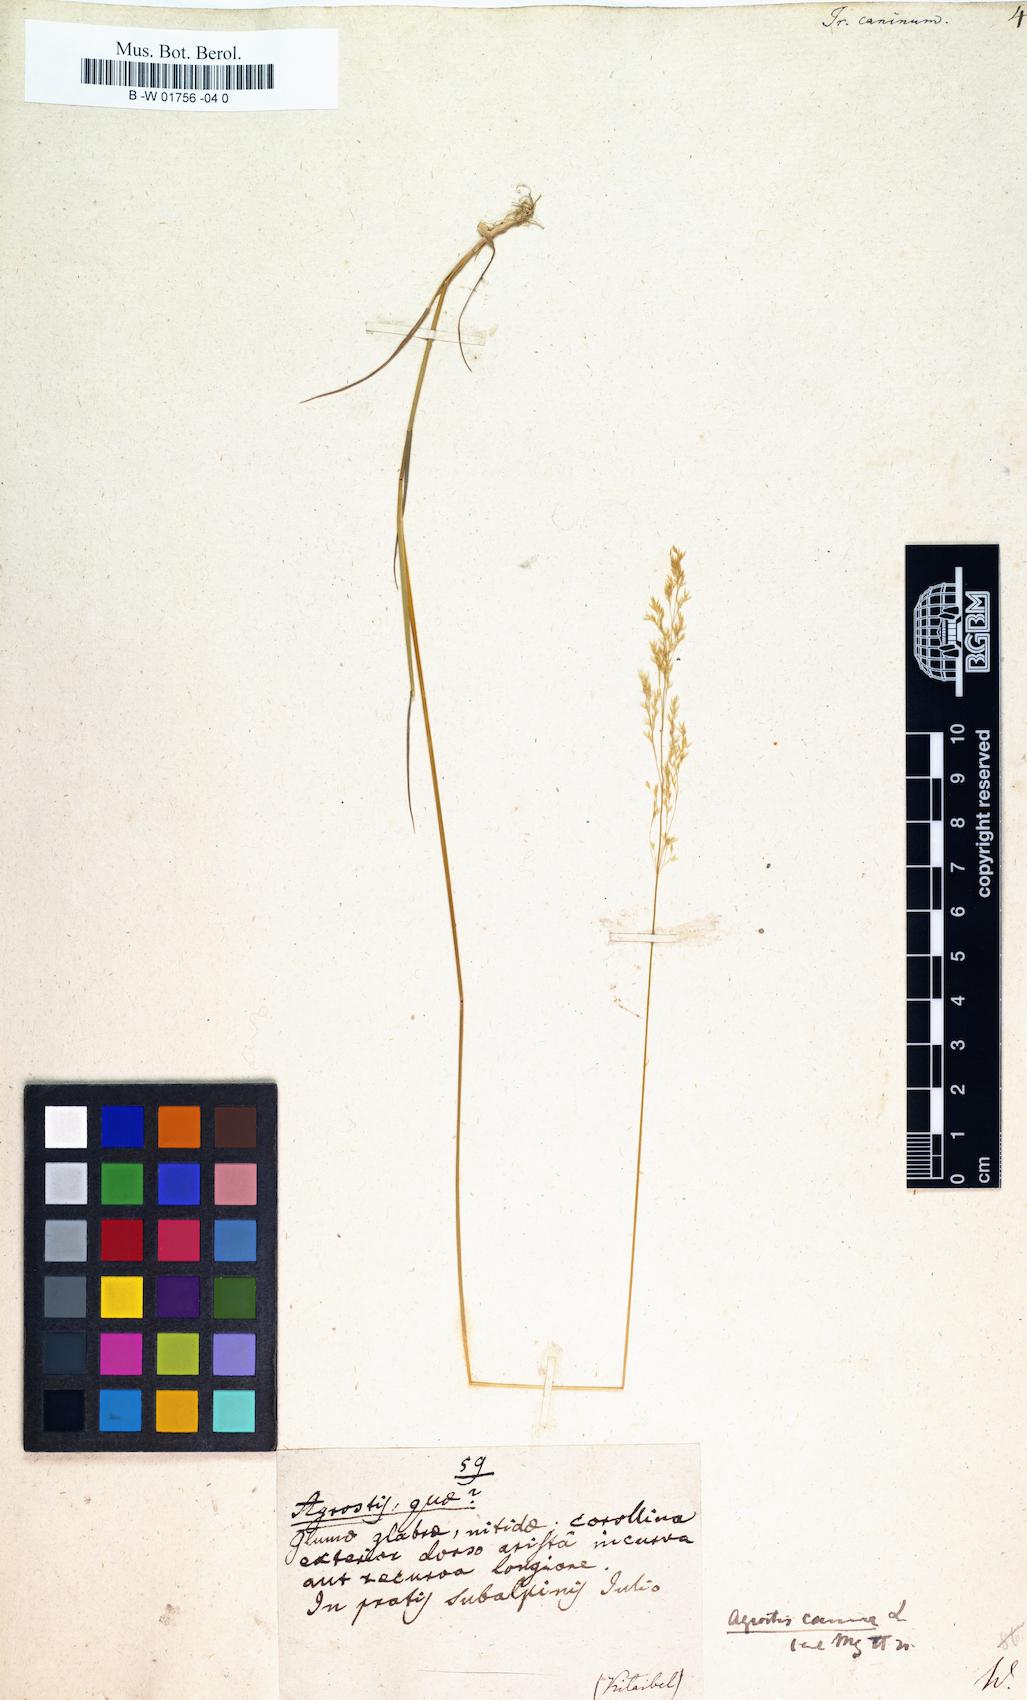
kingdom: Plantae
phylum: Tracheophyta
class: Liliopsida
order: Poales
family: Poaceae
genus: Agrostis
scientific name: Agrostis canina
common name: Velvet bent
